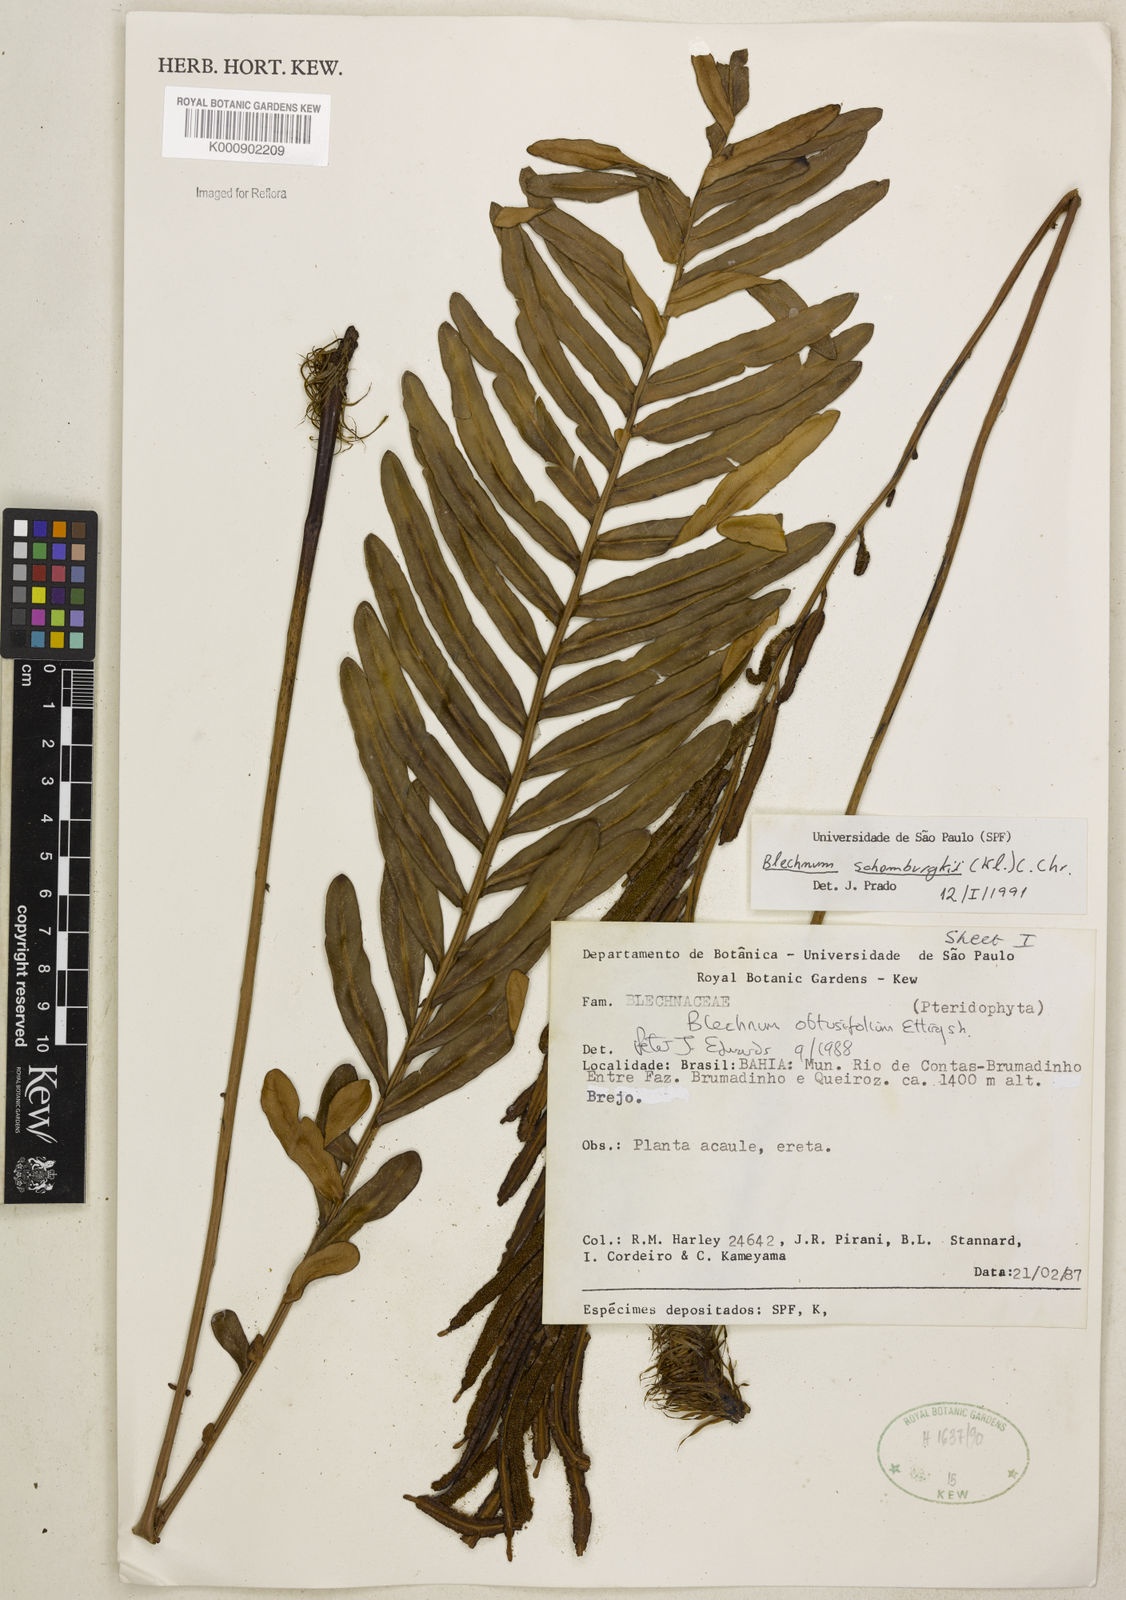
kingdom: Plantae
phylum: Tracheophyta
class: Polypodiopsida
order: Polypodiales
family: Blechnaceae
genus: Lomariocycas
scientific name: Lomariocycas schomburgkii
